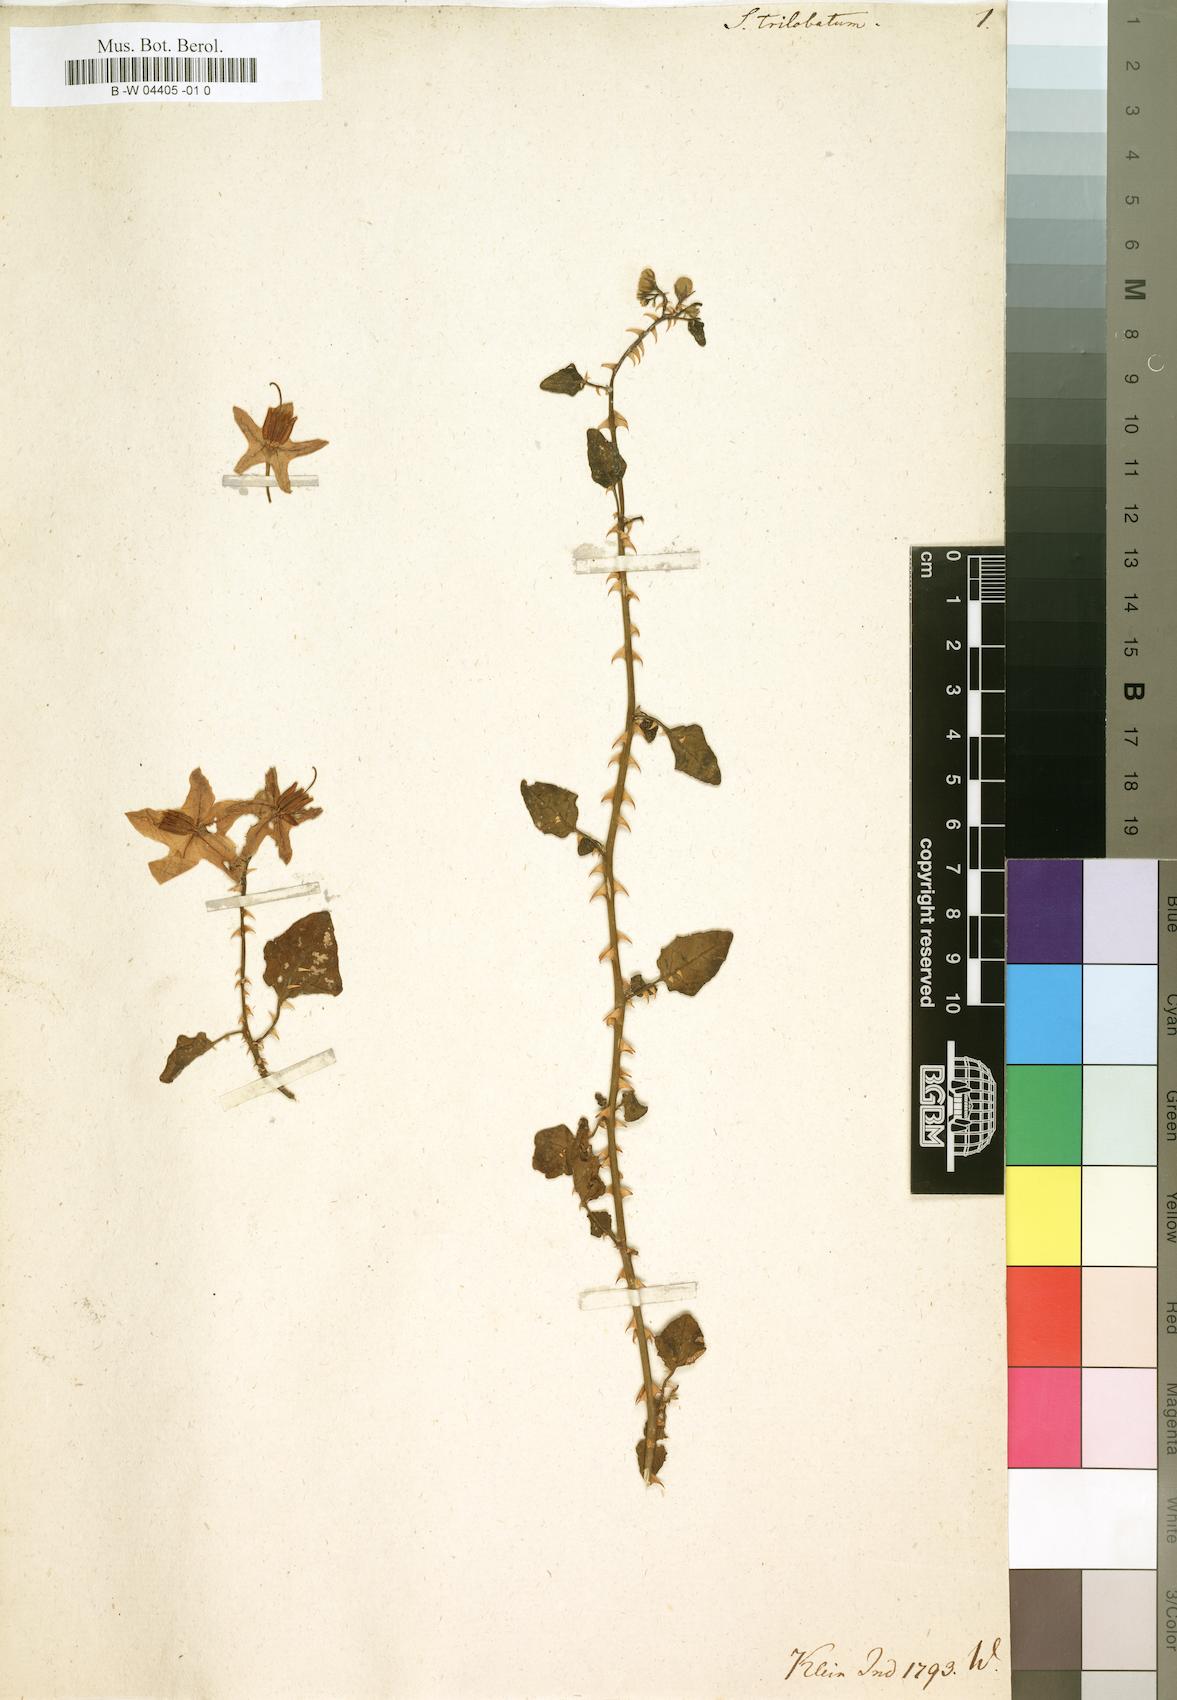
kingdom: Plantae
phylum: Tracheophyta
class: Magnoliopsida
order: Solanales
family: Solanaceae
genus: Solanum
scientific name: Solanum trilobatum
